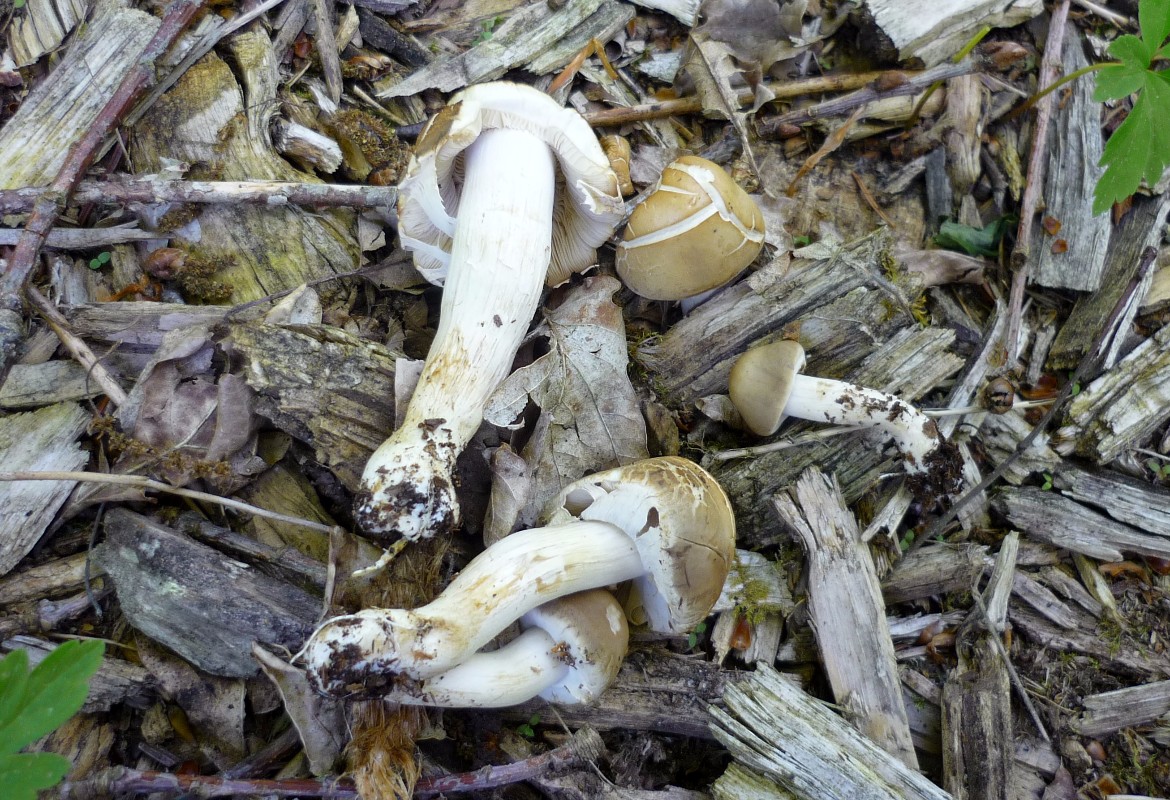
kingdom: Fungi
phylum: Basidiomycota
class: Agaricomycetes
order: Agaricales
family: Strophariaceae
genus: Agrocybe
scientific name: Agrocybe praecox
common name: tidlig agerhat
